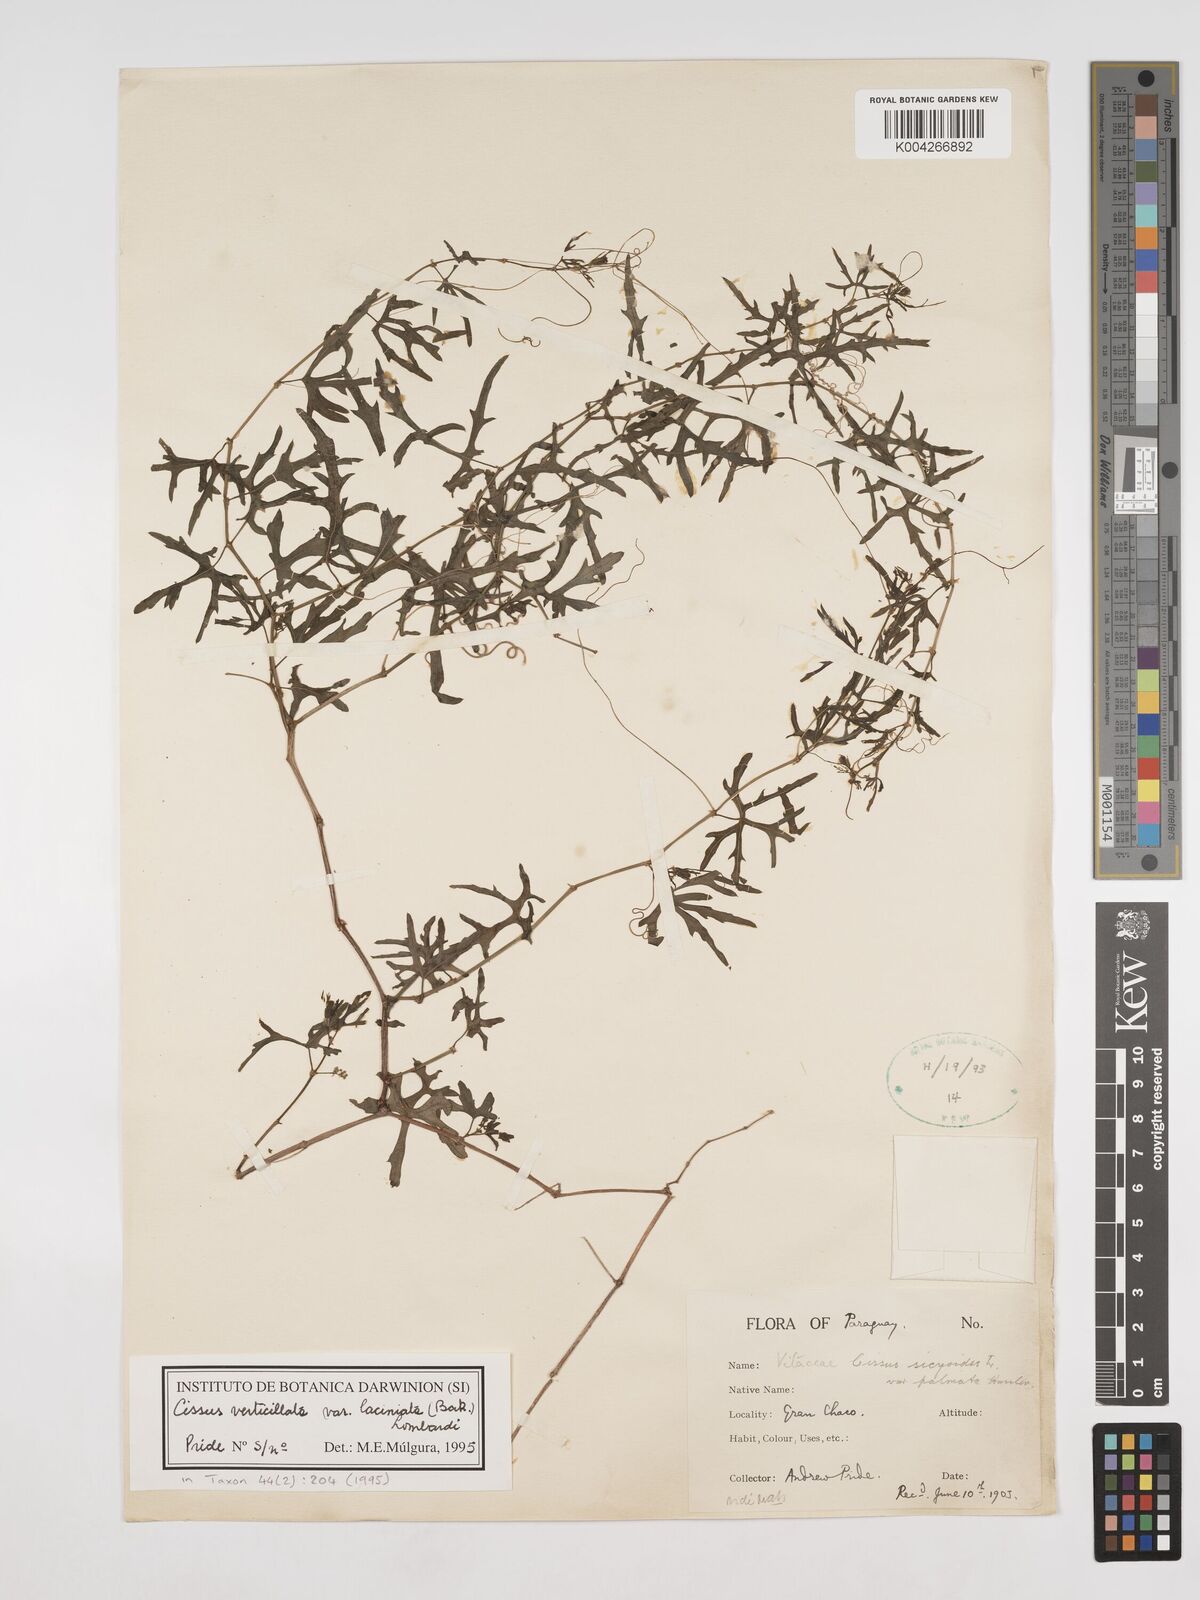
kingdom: Plantae
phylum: Tracheophyta
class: Magnoliopsida
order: Vitales
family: Vitaceae
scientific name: Vitaceae
